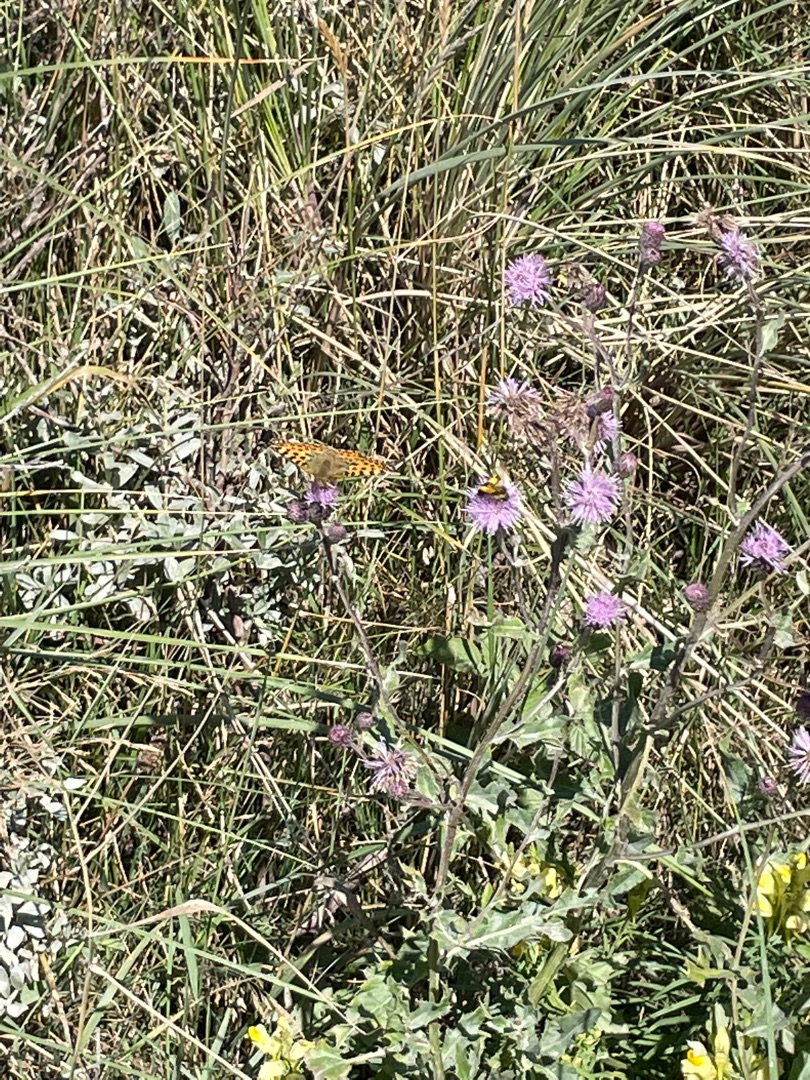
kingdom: Animalia
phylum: Arthropoda
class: Insecta
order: Lepidoptera
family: Nymphalidae
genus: Issoria
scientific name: Issoria lathonia
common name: Storplettet perlemorsommerfugl
